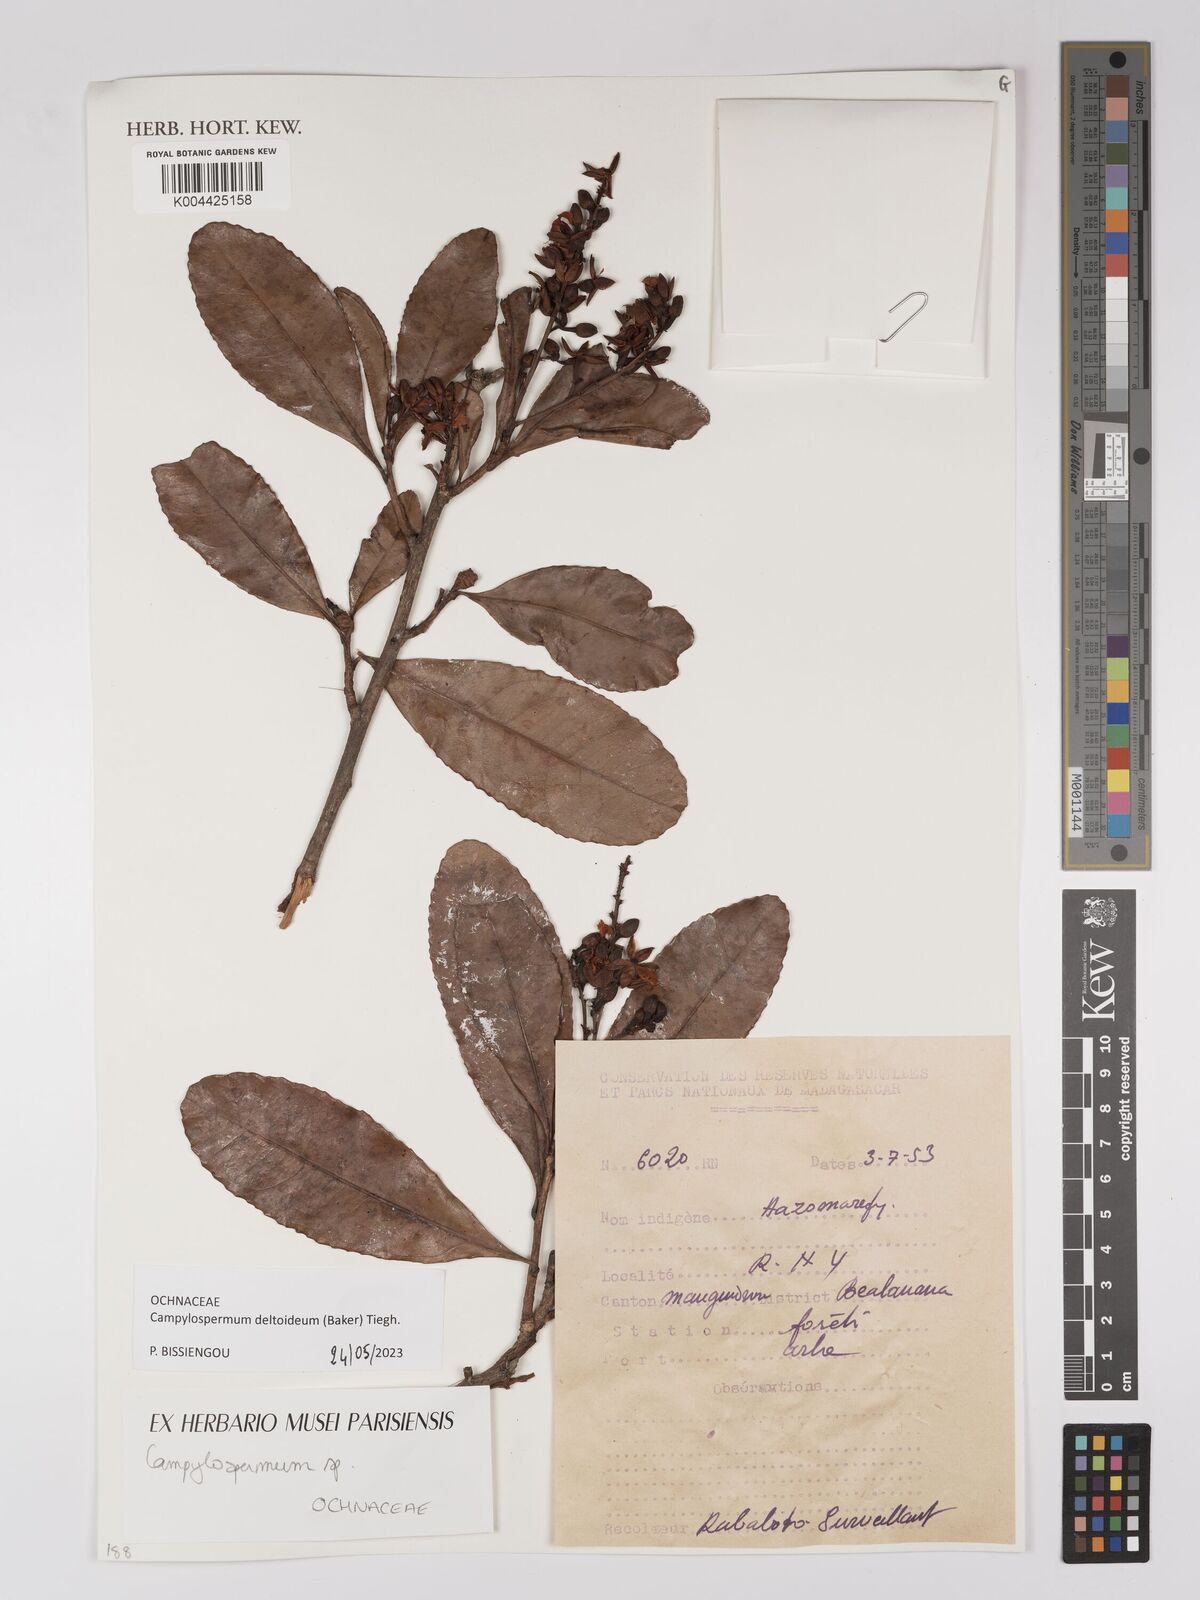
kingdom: Plantae
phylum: Tracheophyta
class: Magnoliopsida
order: Malpighiales
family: Ochnaceae
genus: Campylospermum
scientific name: Campylospermum
